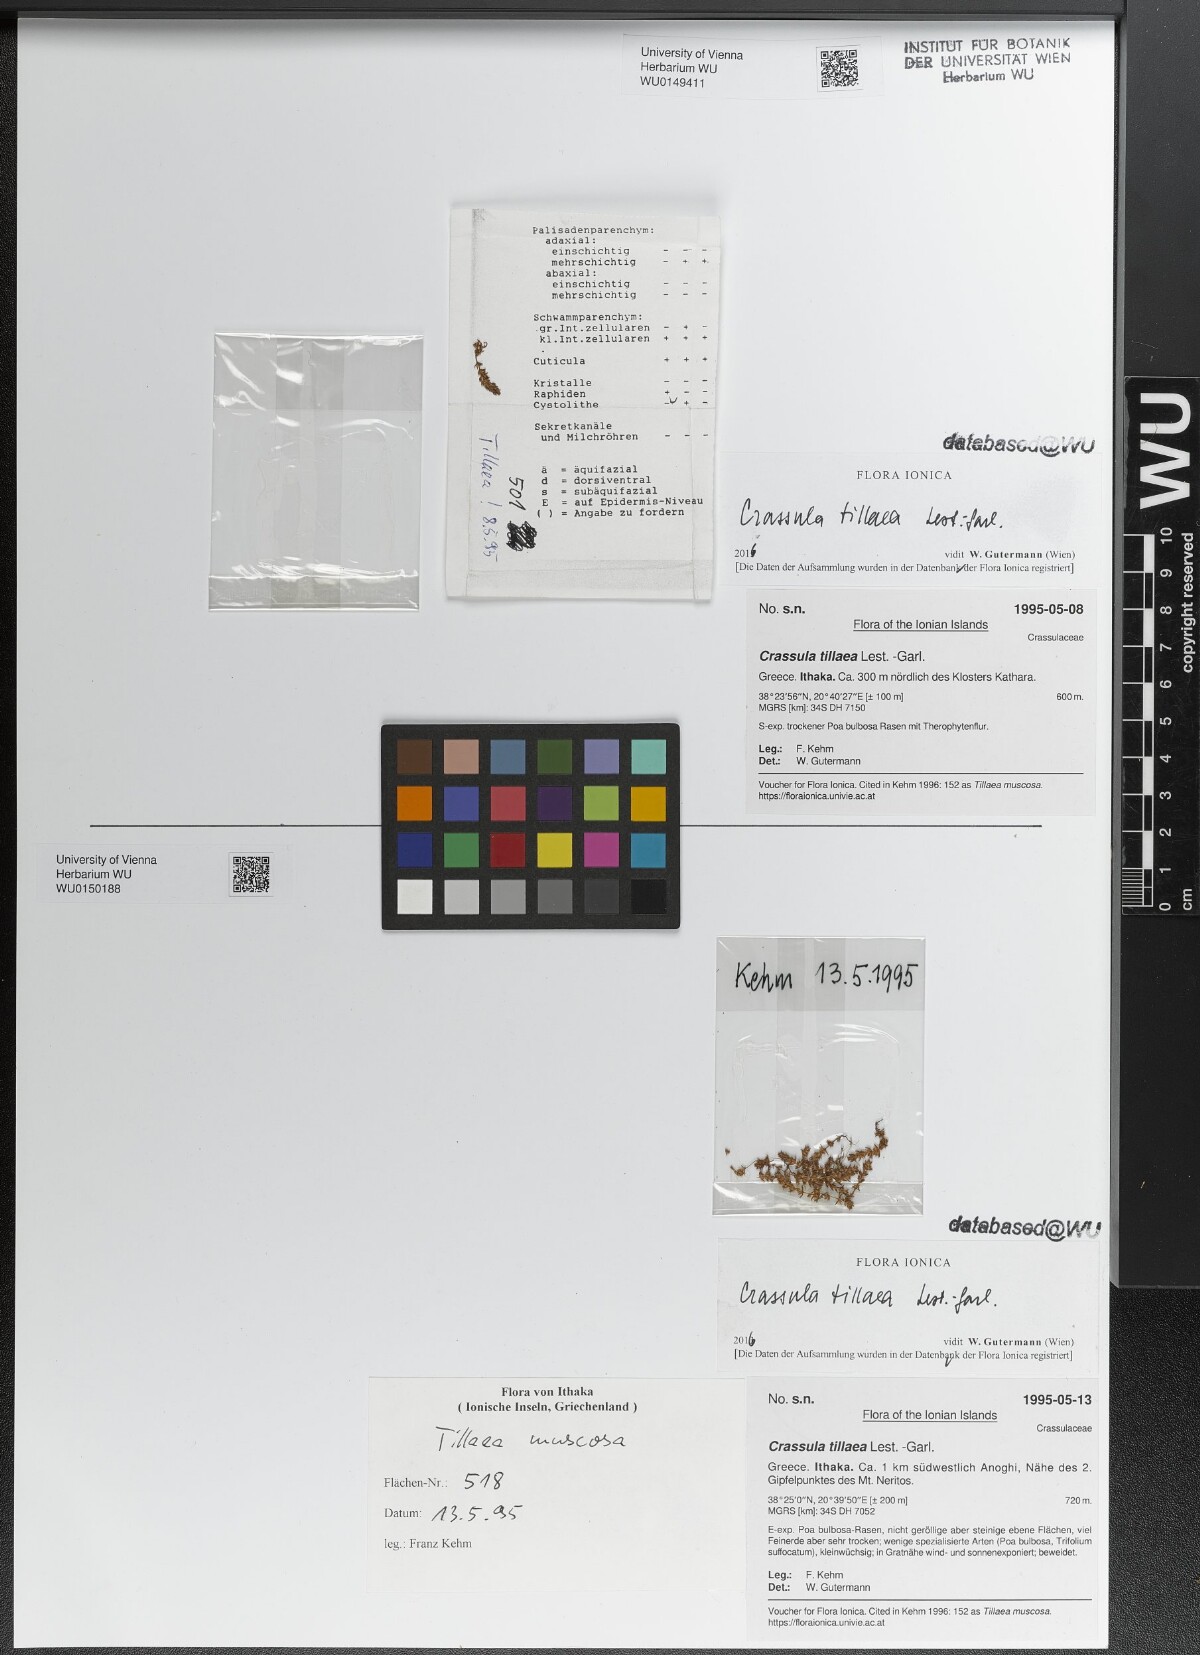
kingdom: Plantae
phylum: Tracheophyta
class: Magnoliopsida
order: Saxifragales
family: Crassulaceae
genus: Crassula
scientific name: Crassula tillaea
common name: Mossy stonecrop
